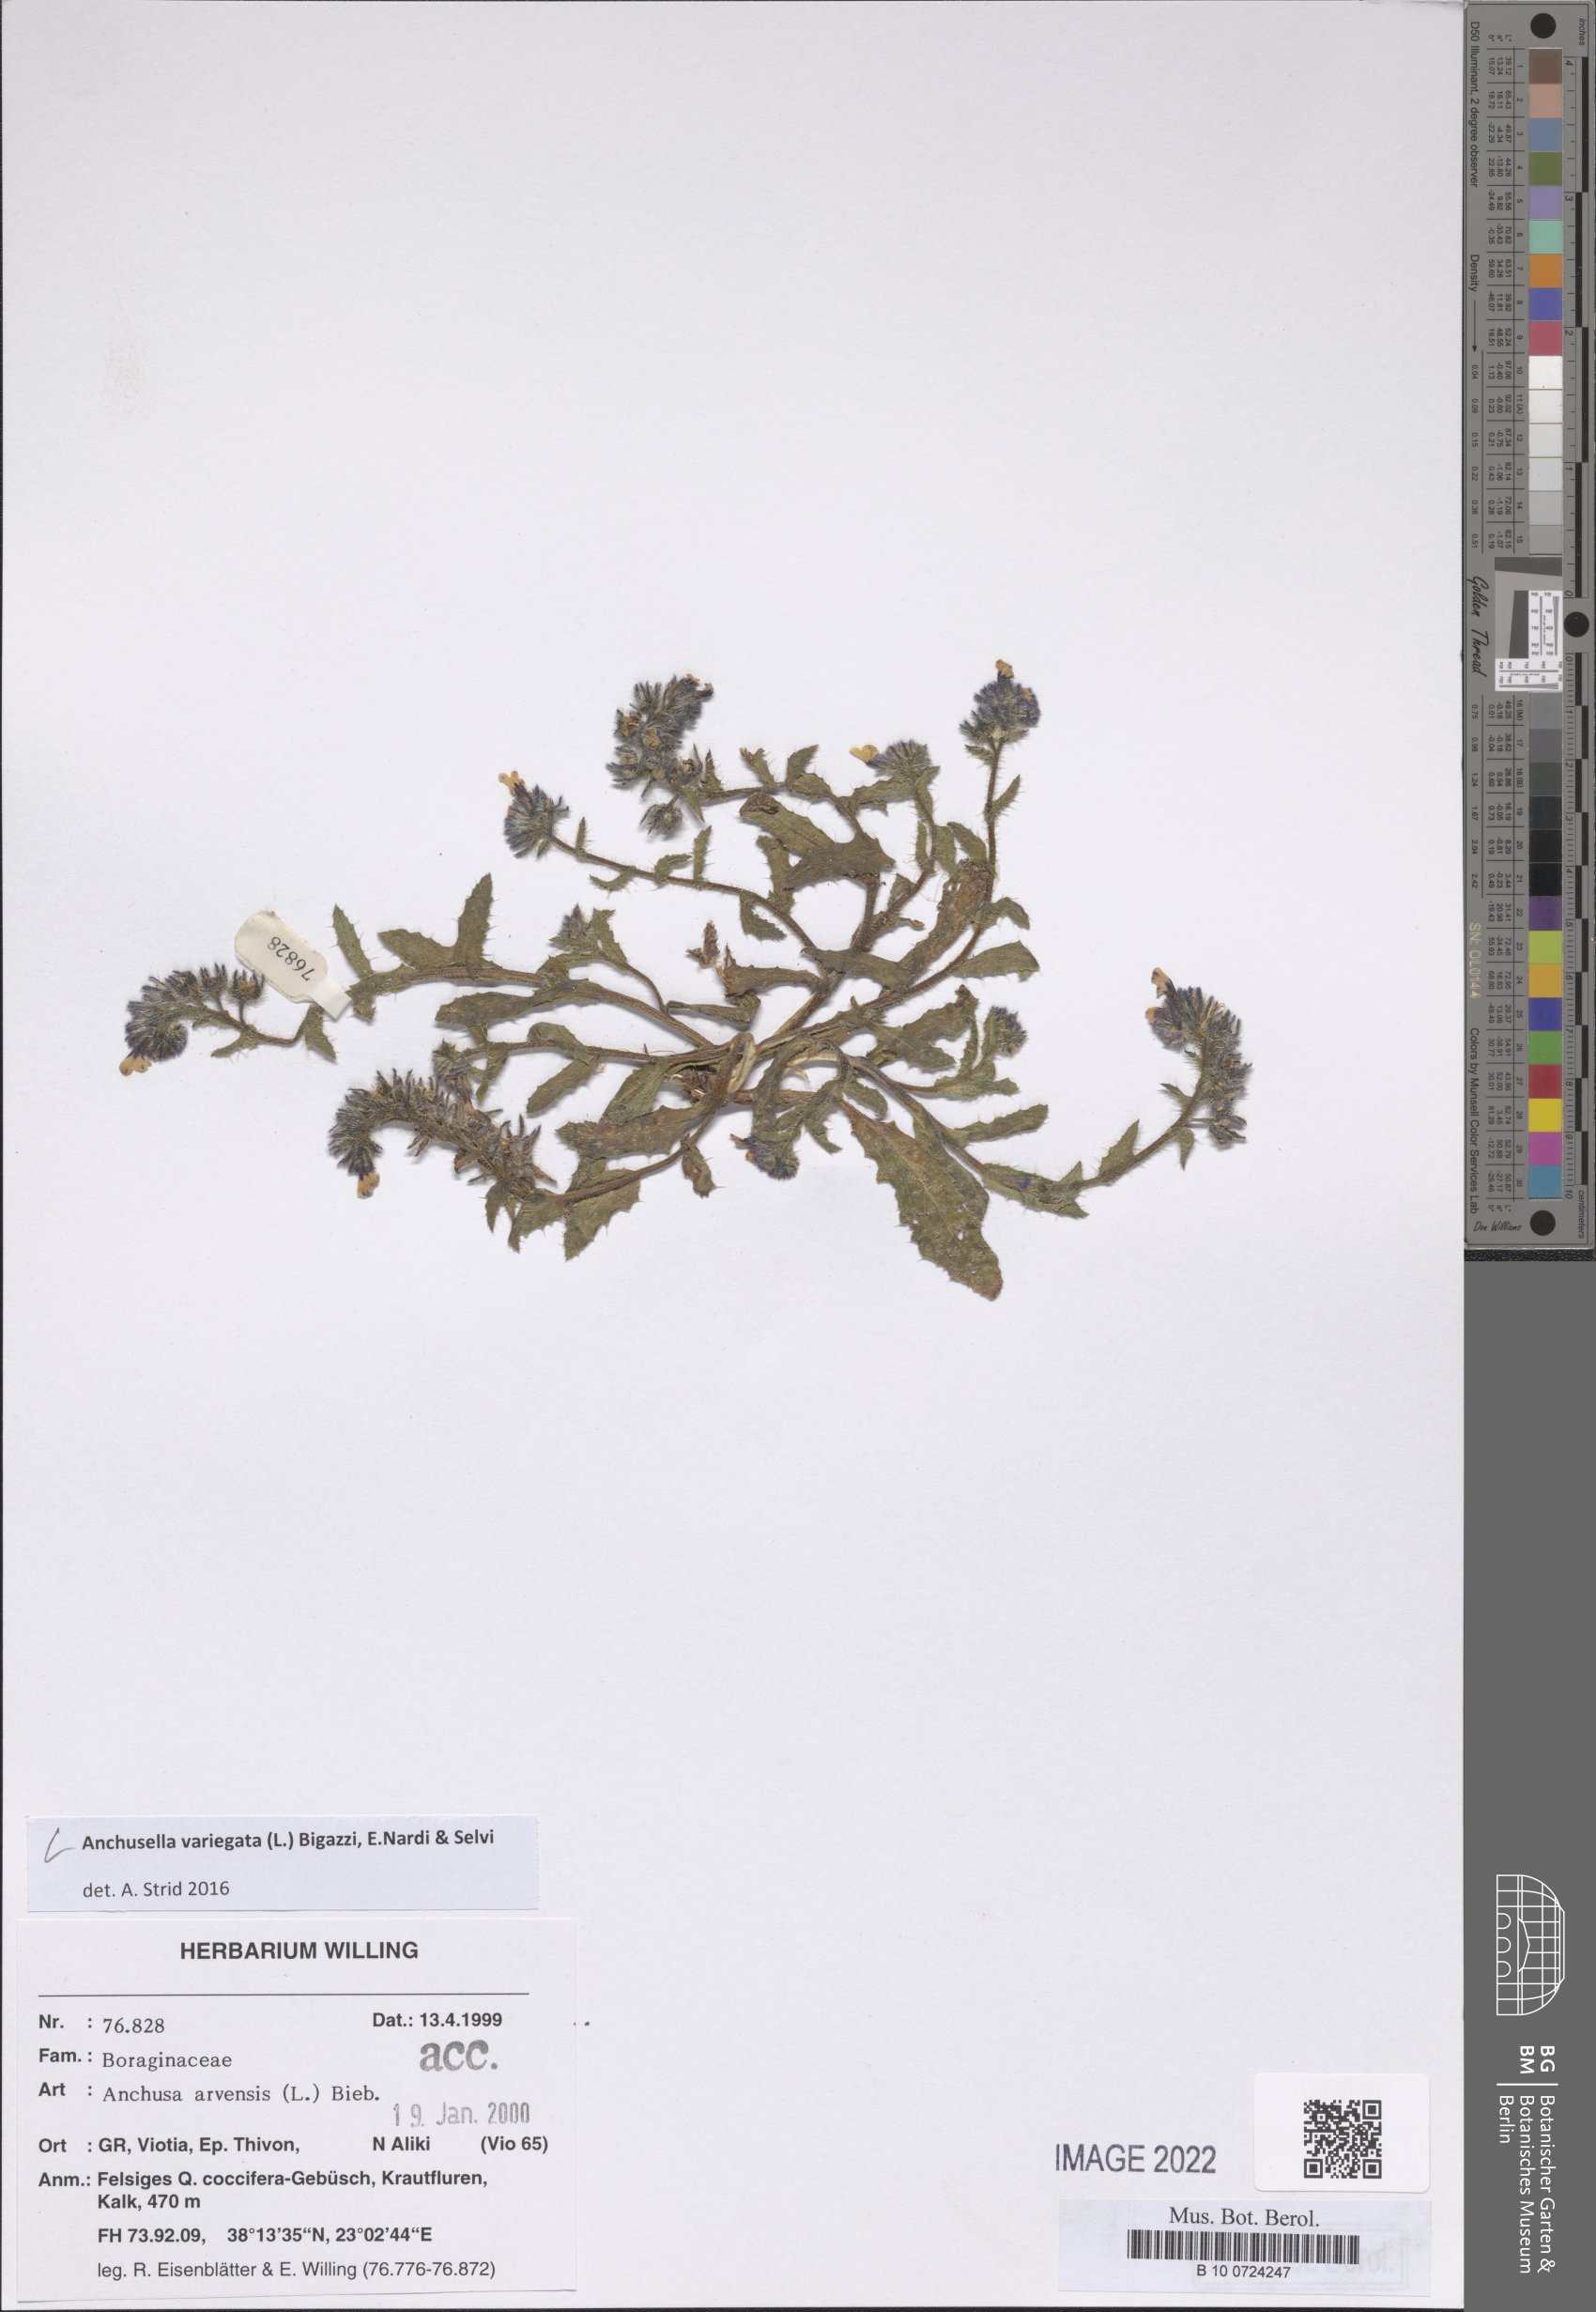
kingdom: Plantae
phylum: Tracheophyta
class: Magnoliopsida
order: Boraginales
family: Boraginaceae
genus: Anchusella
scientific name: Anchusella variegata
